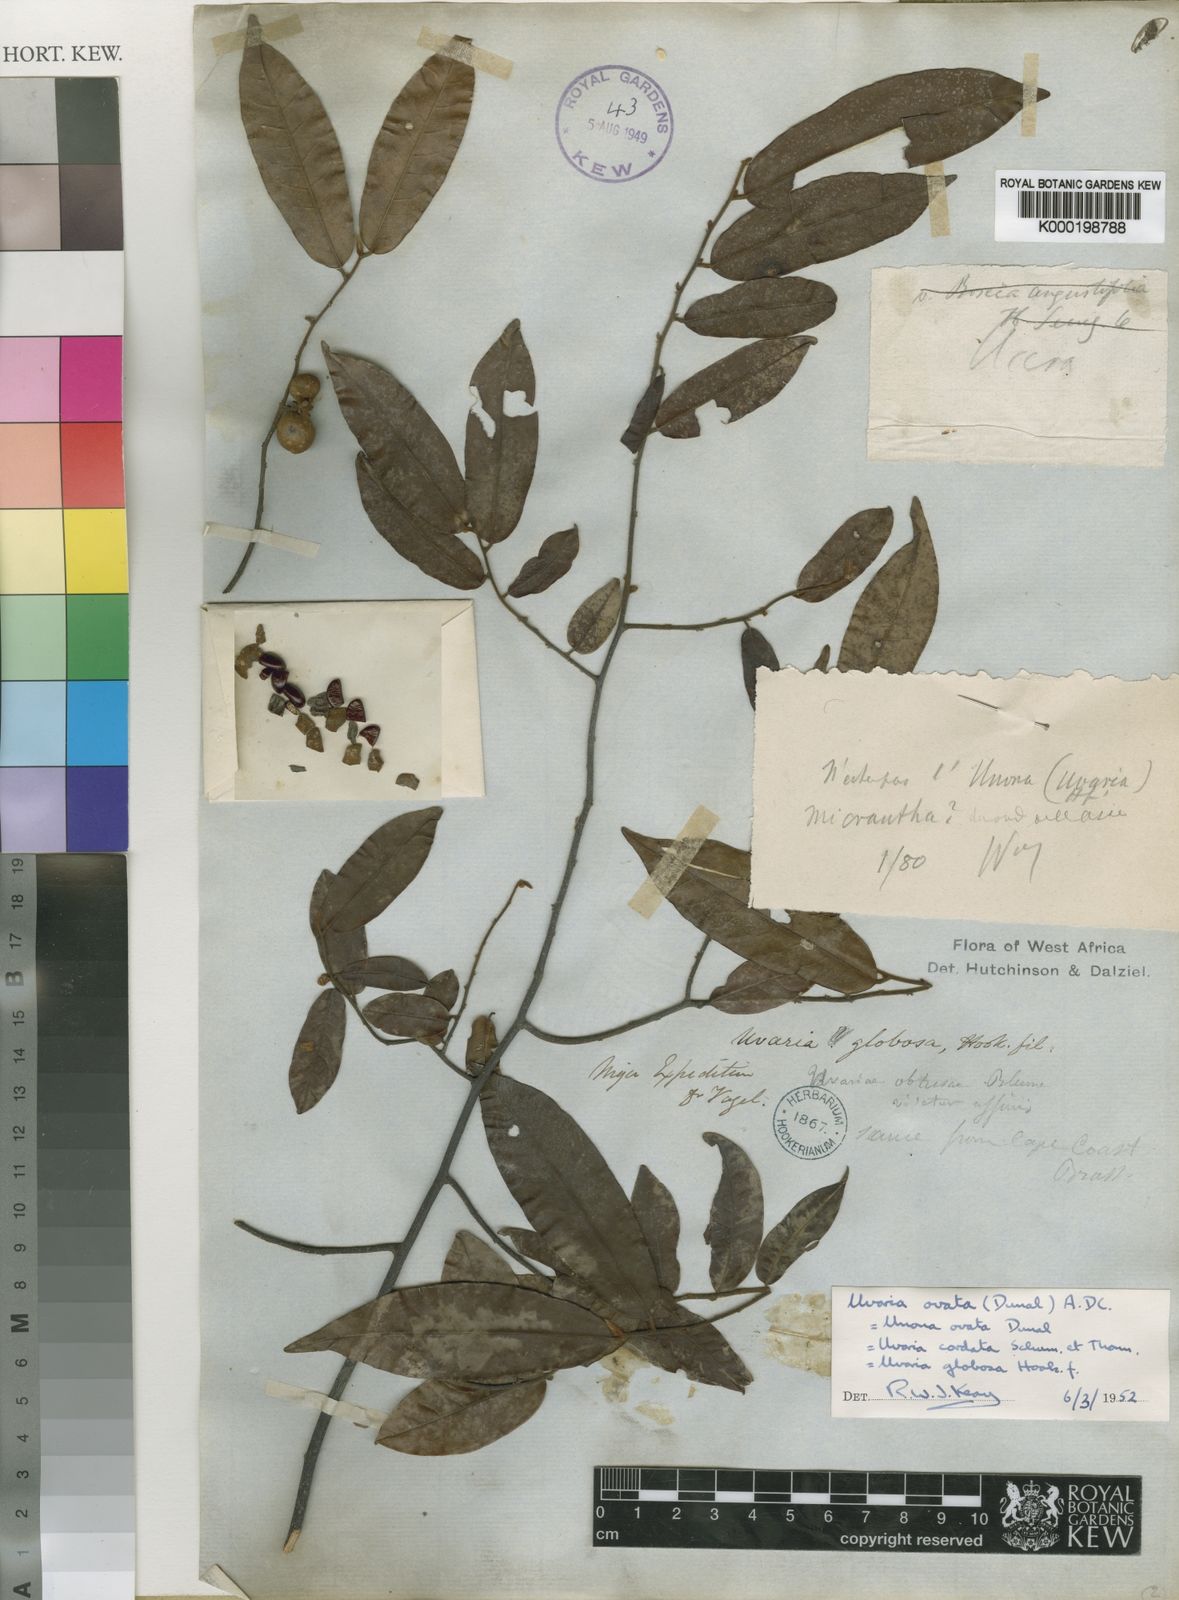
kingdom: Plantae
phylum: Tracheophyta
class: Magnoliopsida
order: Magnoliales
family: Annonaceae
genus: Uvaria
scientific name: Uvaria ovata
